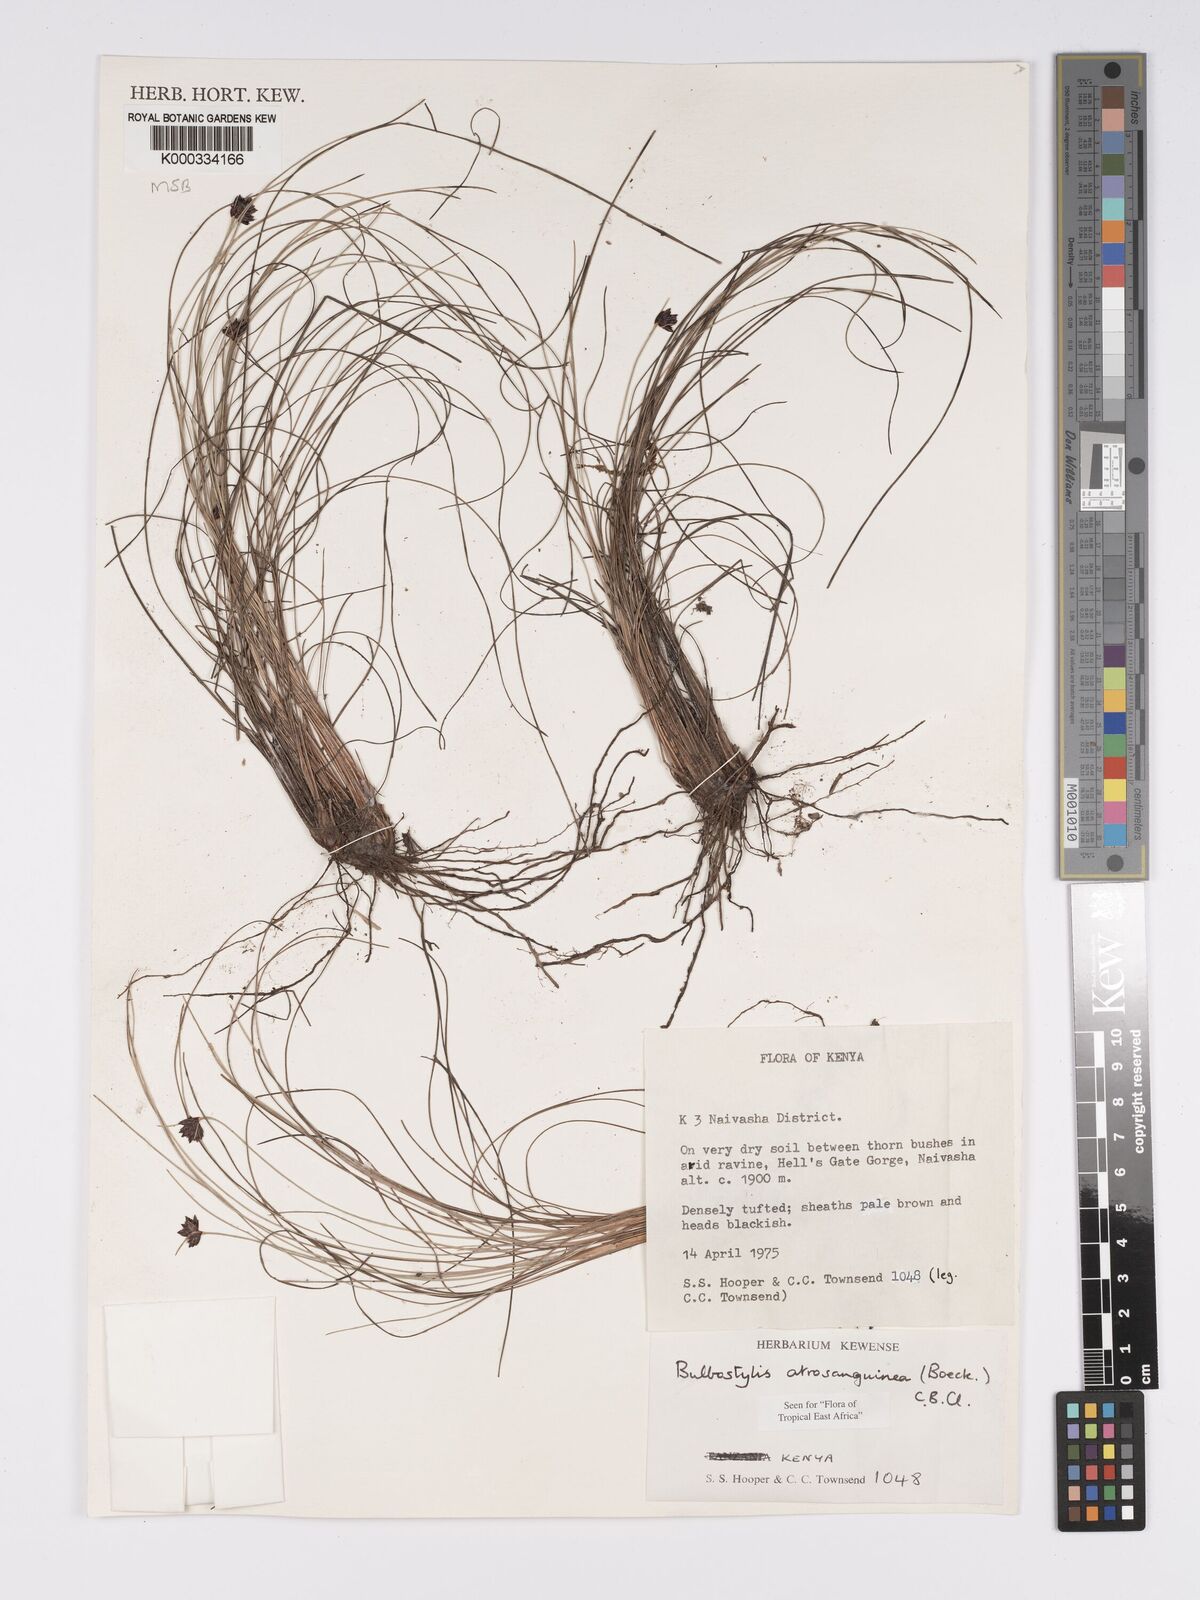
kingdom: Plantae
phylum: Tracheophyta
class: Liliopsida
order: Poales
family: Cyperaceae
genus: Bulbostylis
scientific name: Bulbostylis atrosanguinea
